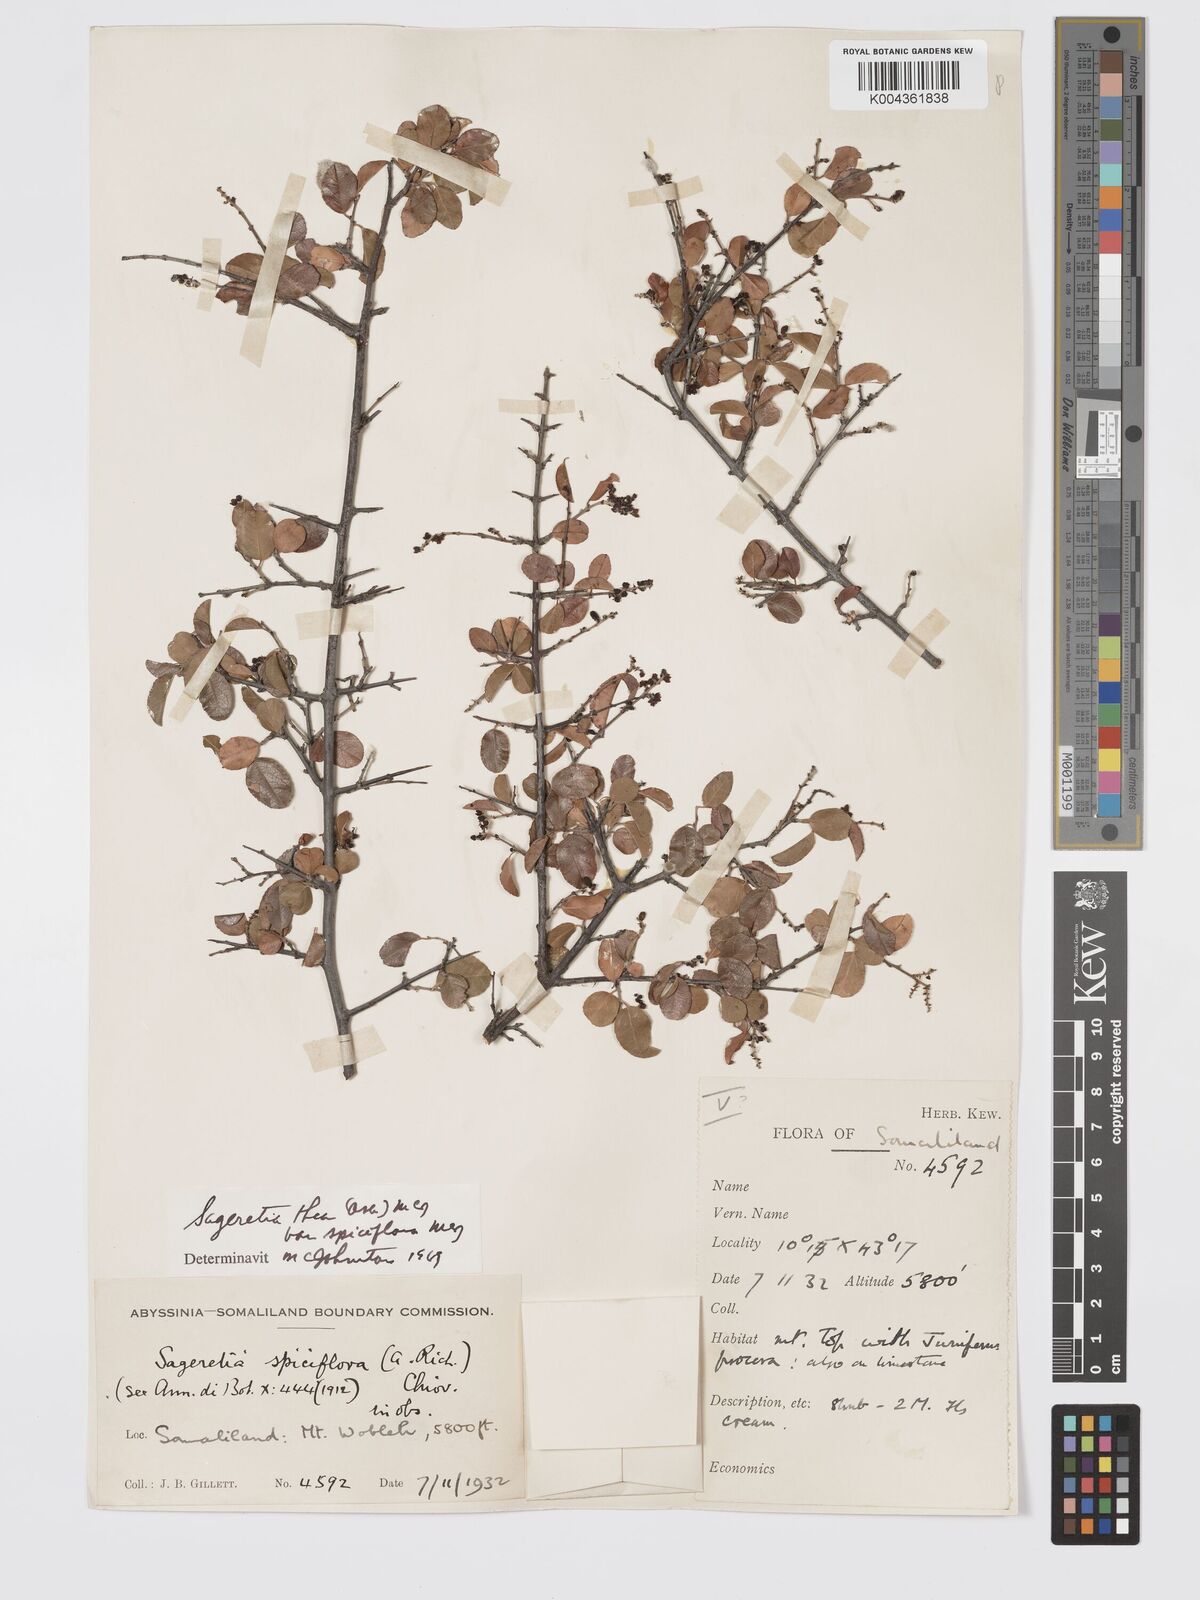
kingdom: Plantae
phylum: Tracheophyta
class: Magnoliopsida
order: Rosales
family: Rhamnaceae
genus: Sageretia
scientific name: Sageretia thea
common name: Pauper's-tea
